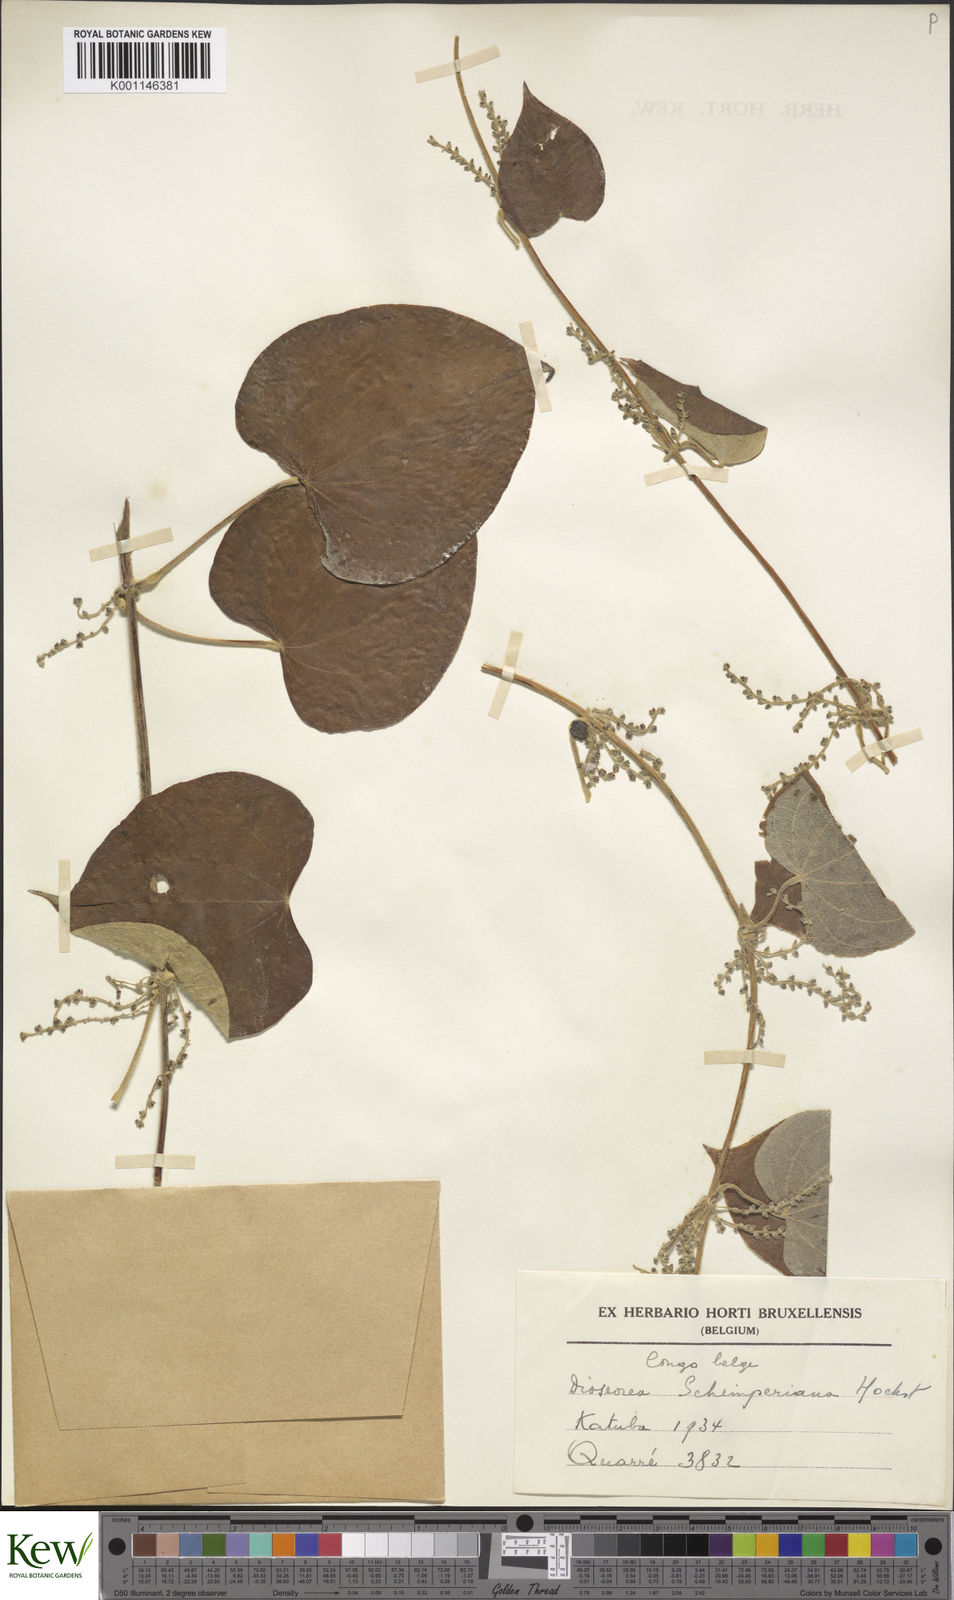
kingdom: Plantae
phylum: Tracheophyta
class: Liliopsida
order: Dioscoreales
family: Dioscoreaceae
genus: Dioscorea
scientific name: Dioscorea schimperiana
